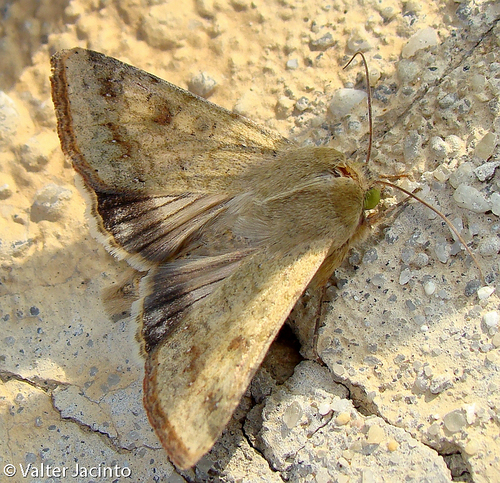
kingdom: Animalia
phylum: Arthropoda
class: Insecta
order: Lepidoptera
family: Noctuidae
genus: Helicoverpa
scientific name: Helicoverpa armigera
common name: Cotton bollworm
